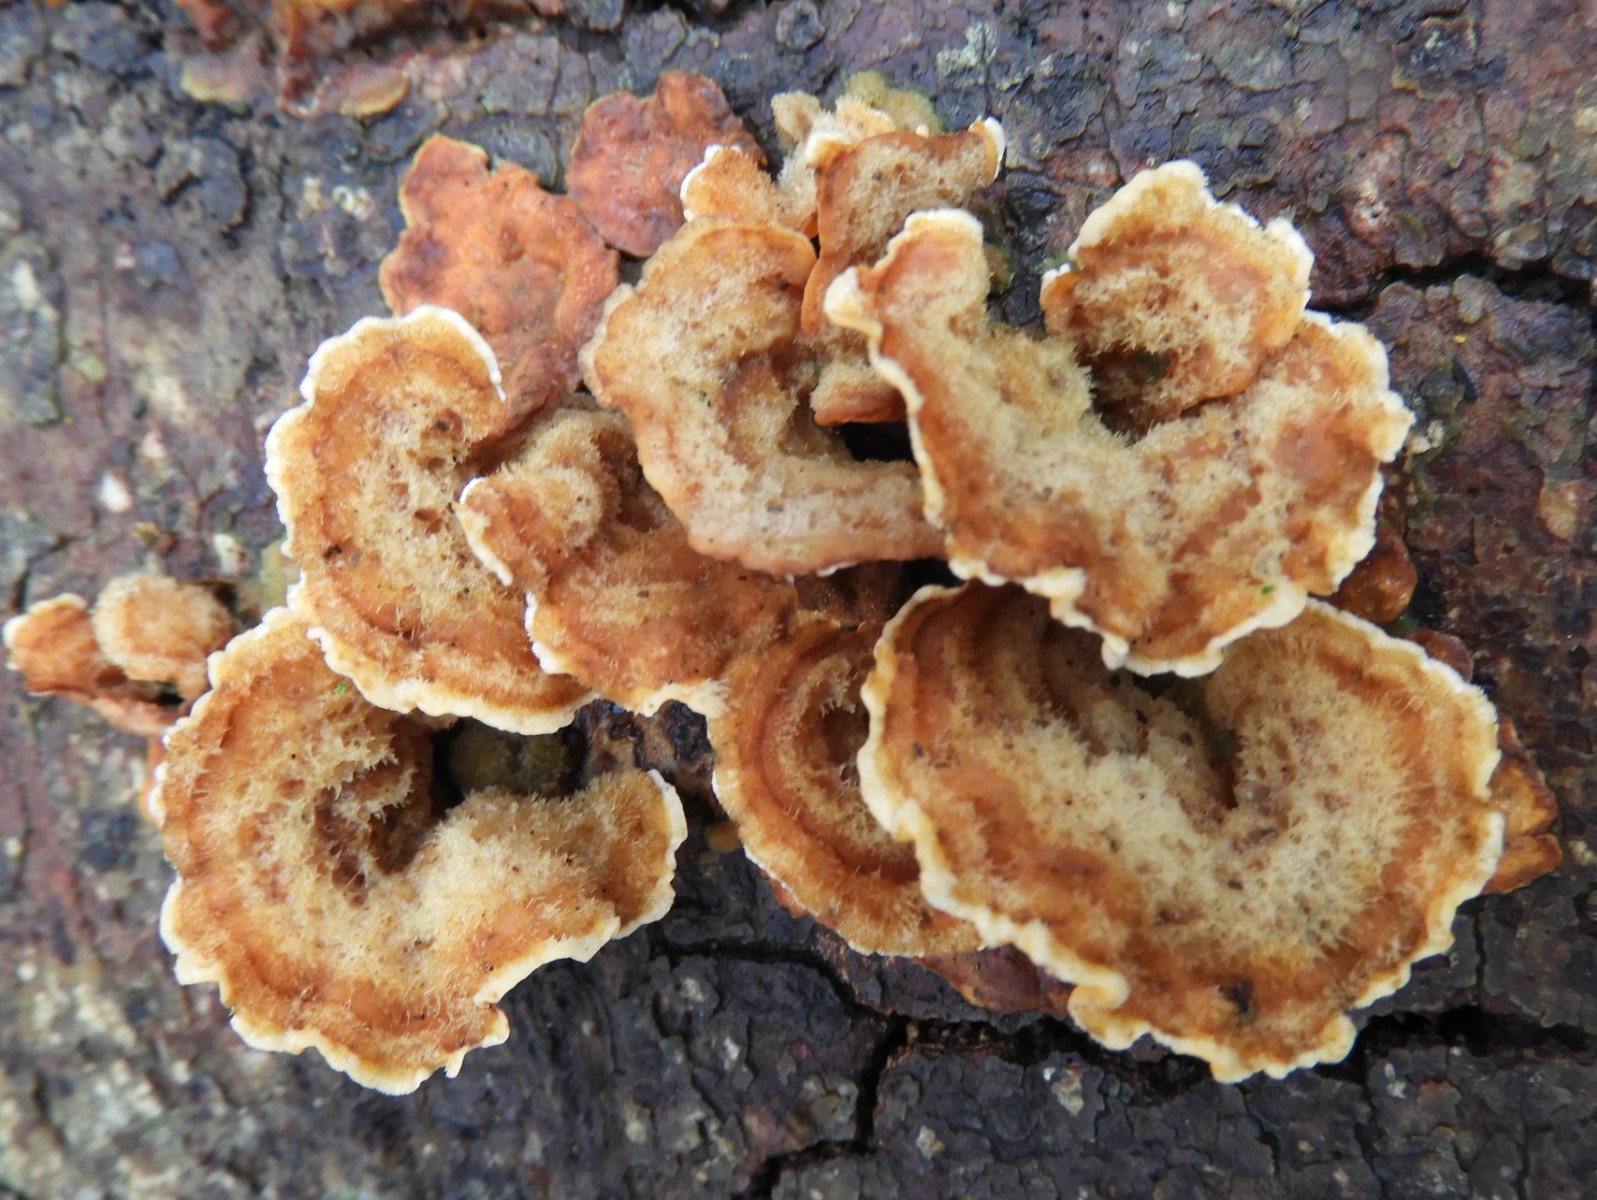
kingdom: Fungi
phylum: Basidiomycota
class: Agaricomycetes
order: Russulales
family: Stereaceae
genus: Stereum
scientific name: Stereum hirsutum
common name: håret lædersvamp
